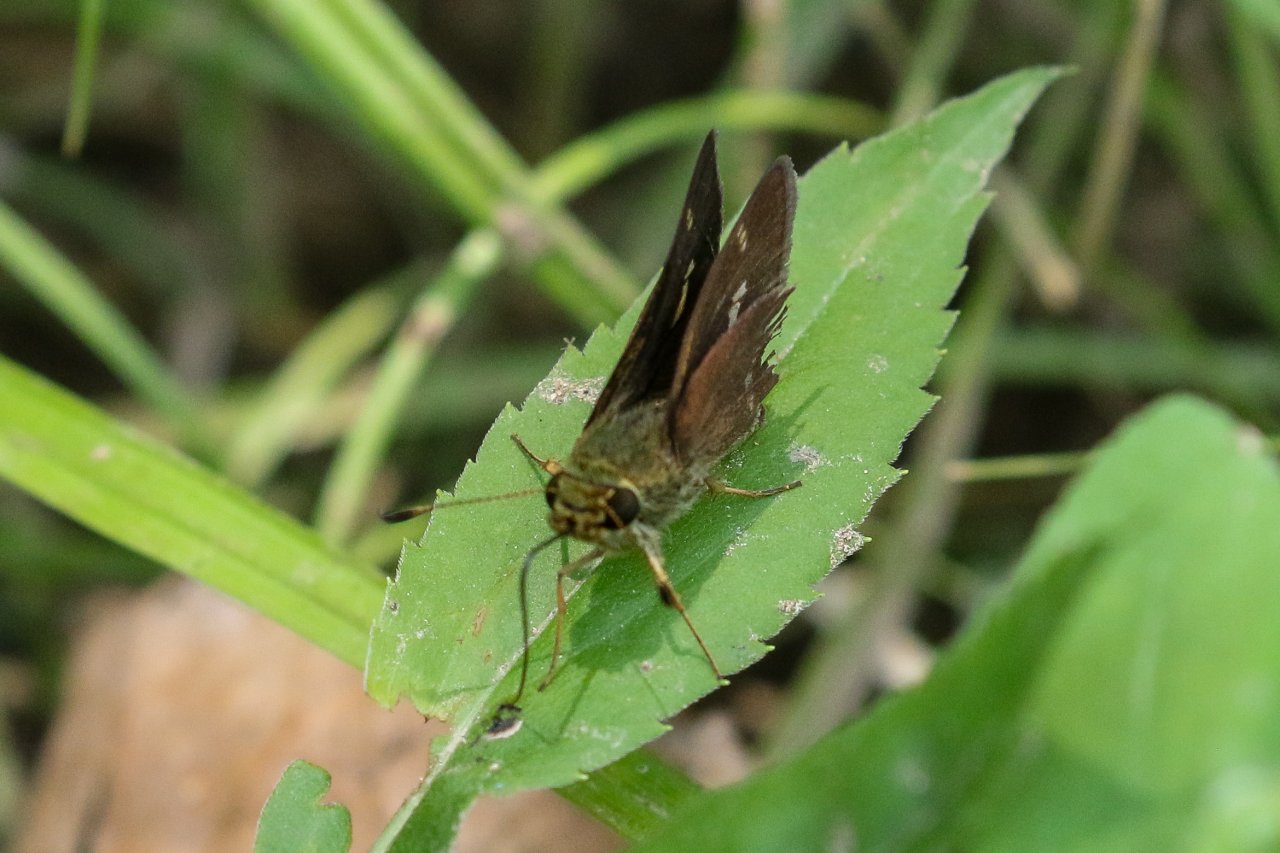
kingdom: Animalia
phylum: Arthropoda
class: Insecta
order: Lepidoptera
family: Hesperiidae
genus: Vernia
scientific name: Vernia verna
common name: Little Glassywing
